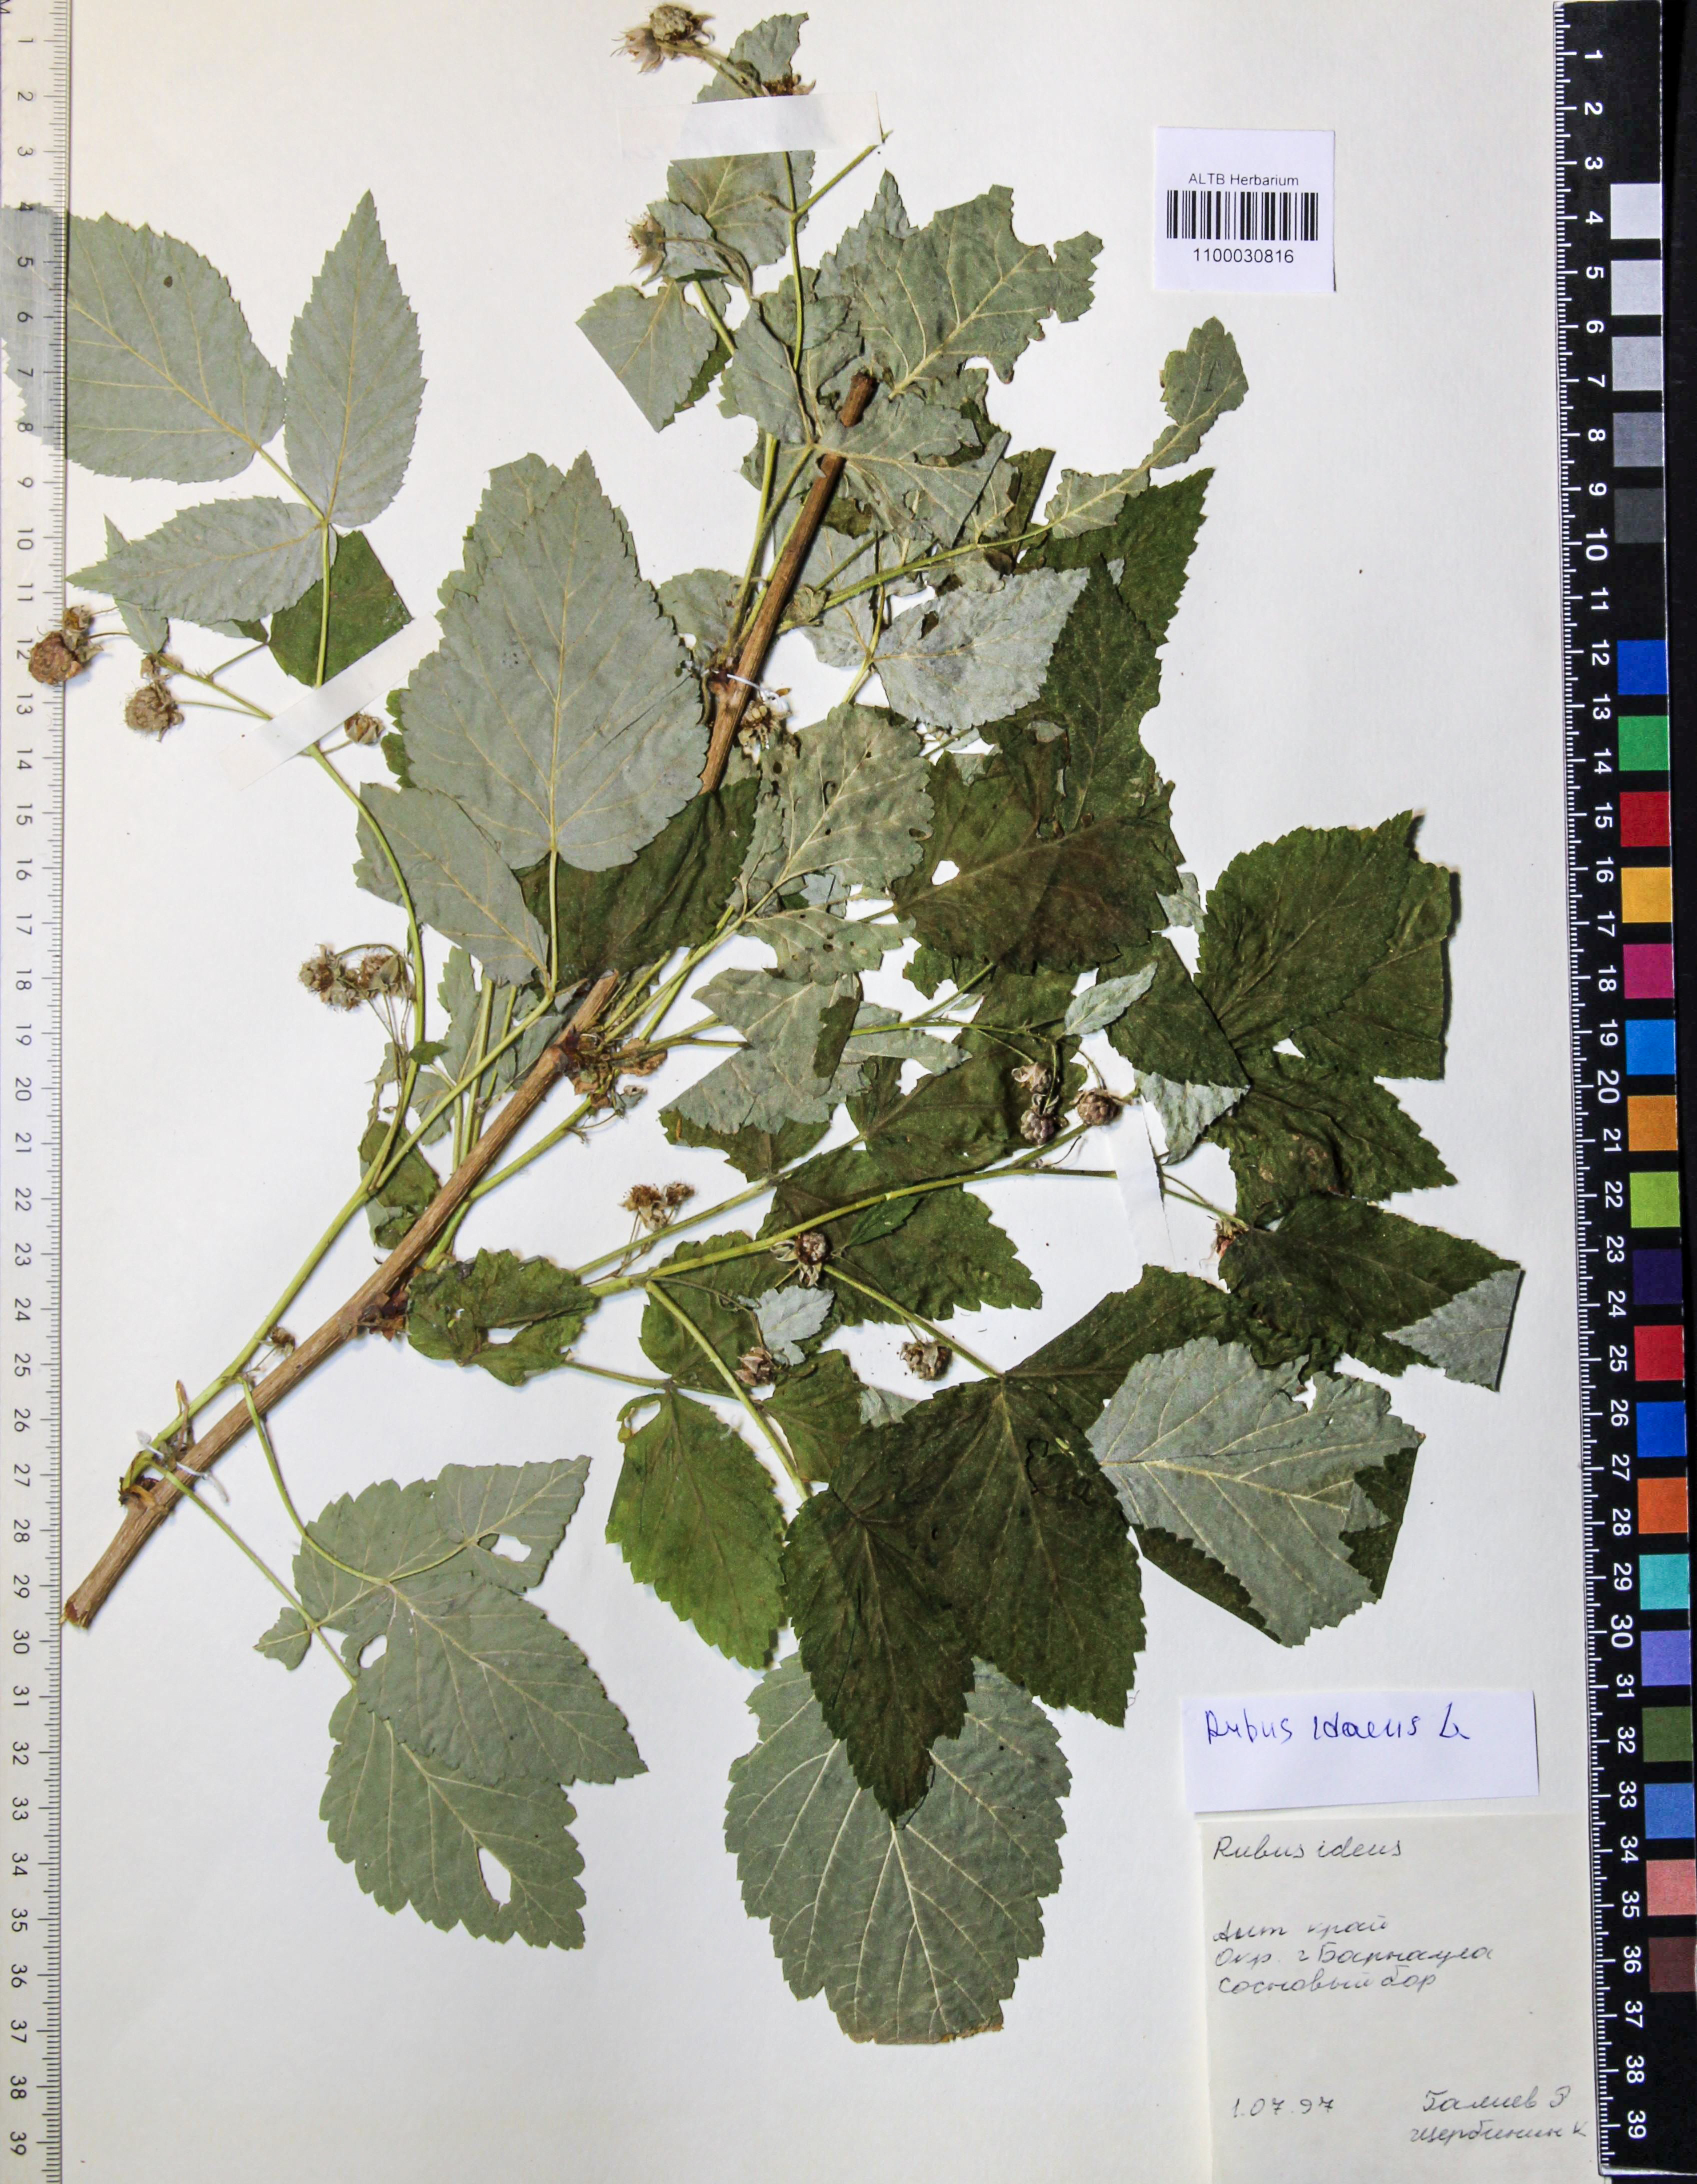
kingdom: Plantae
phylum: Tracheophyta
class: Magnoliopsida
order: Rosales
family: Rosaceae
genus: Rubus
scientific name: Rubus idaeus
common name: Raspberry
